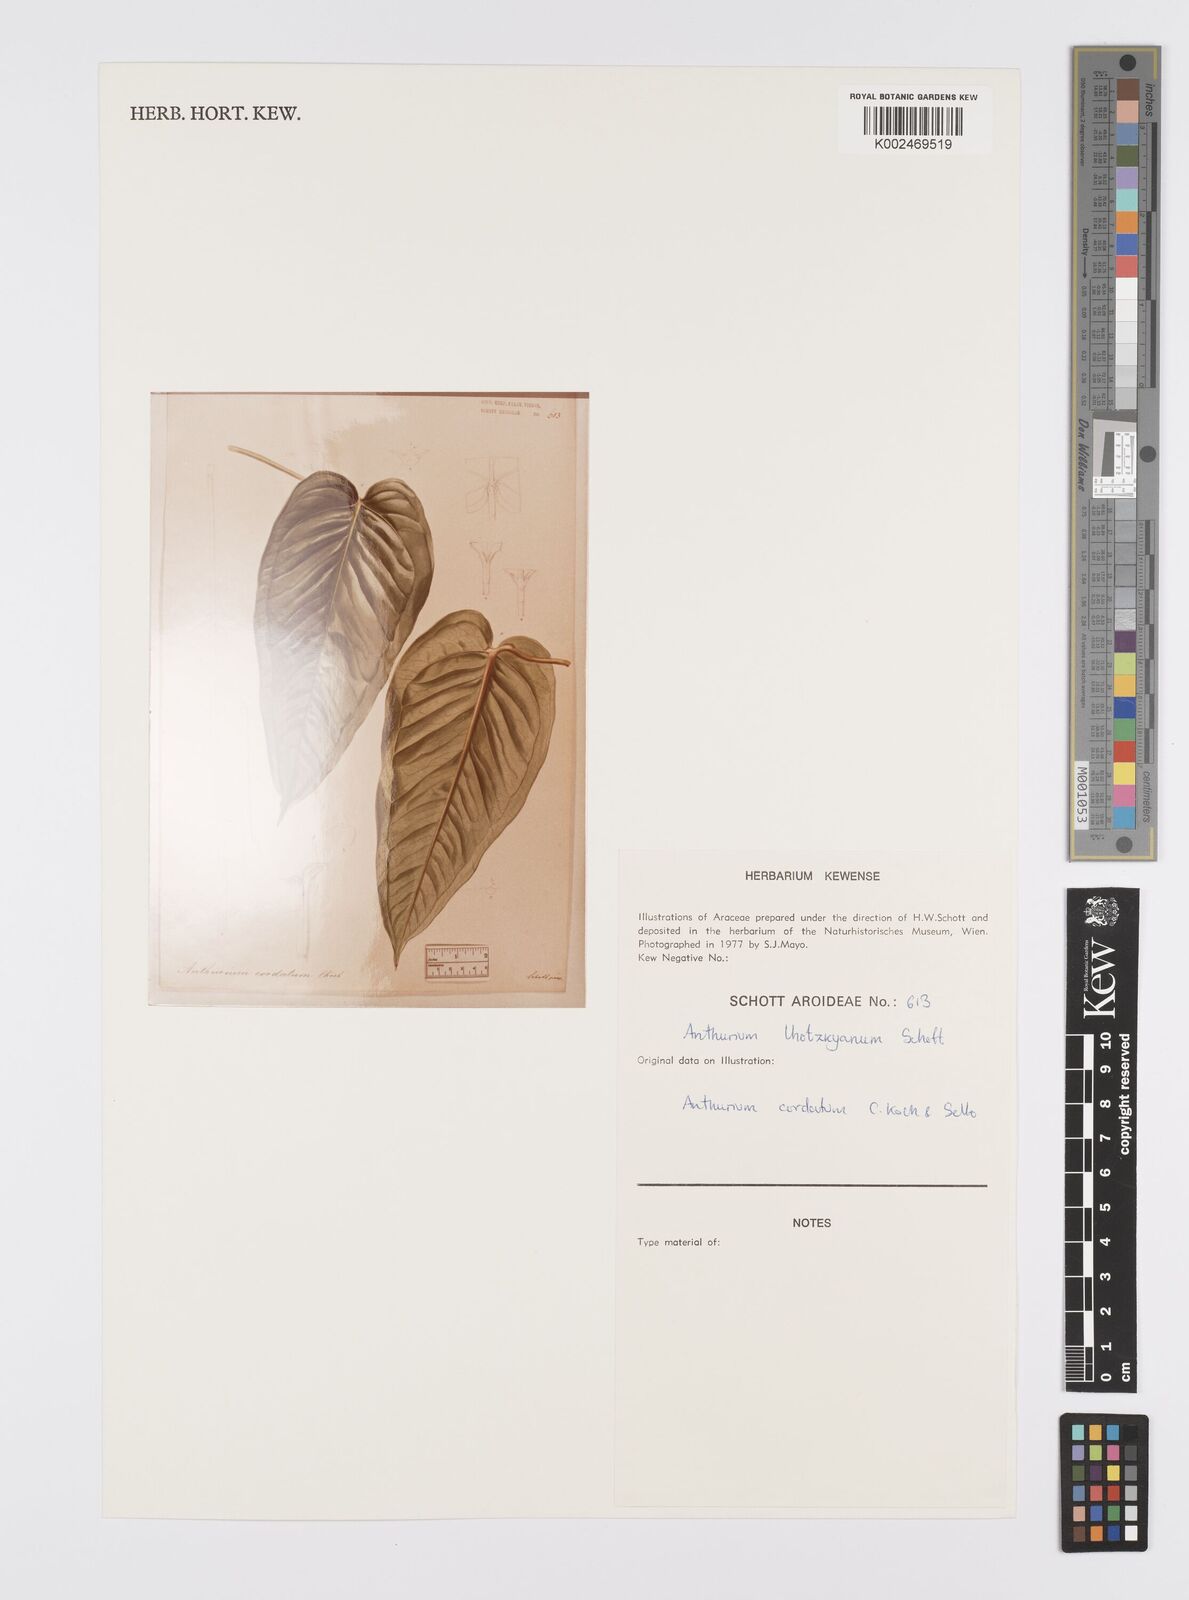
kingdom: Plantae
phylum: Tracheophyta
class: Liliopsida
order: Alismatales
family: Araceae
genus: Anthurium
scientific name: Anthurium augustinum
